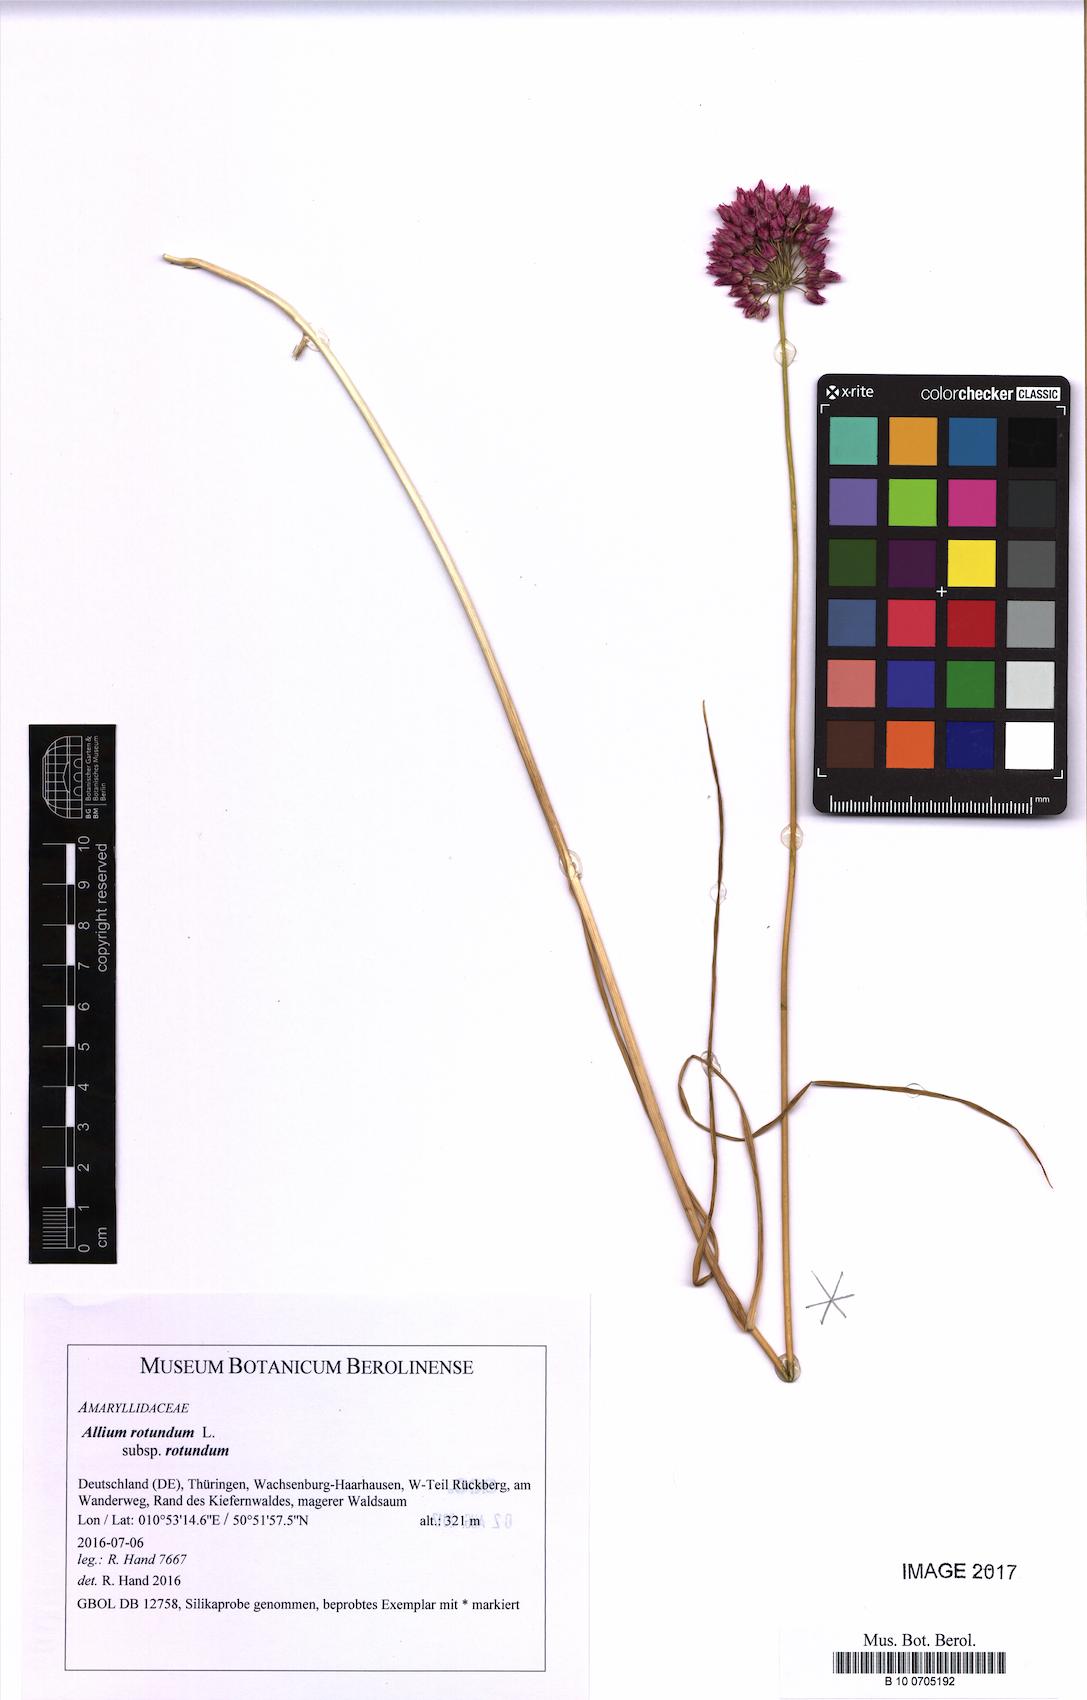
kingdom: Plantae
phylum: Tracheophyta
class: Liliopsida
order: Asparagales
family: Amaryllidaceae
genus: Allium
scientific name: Allium rotundum
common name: Sand leek
